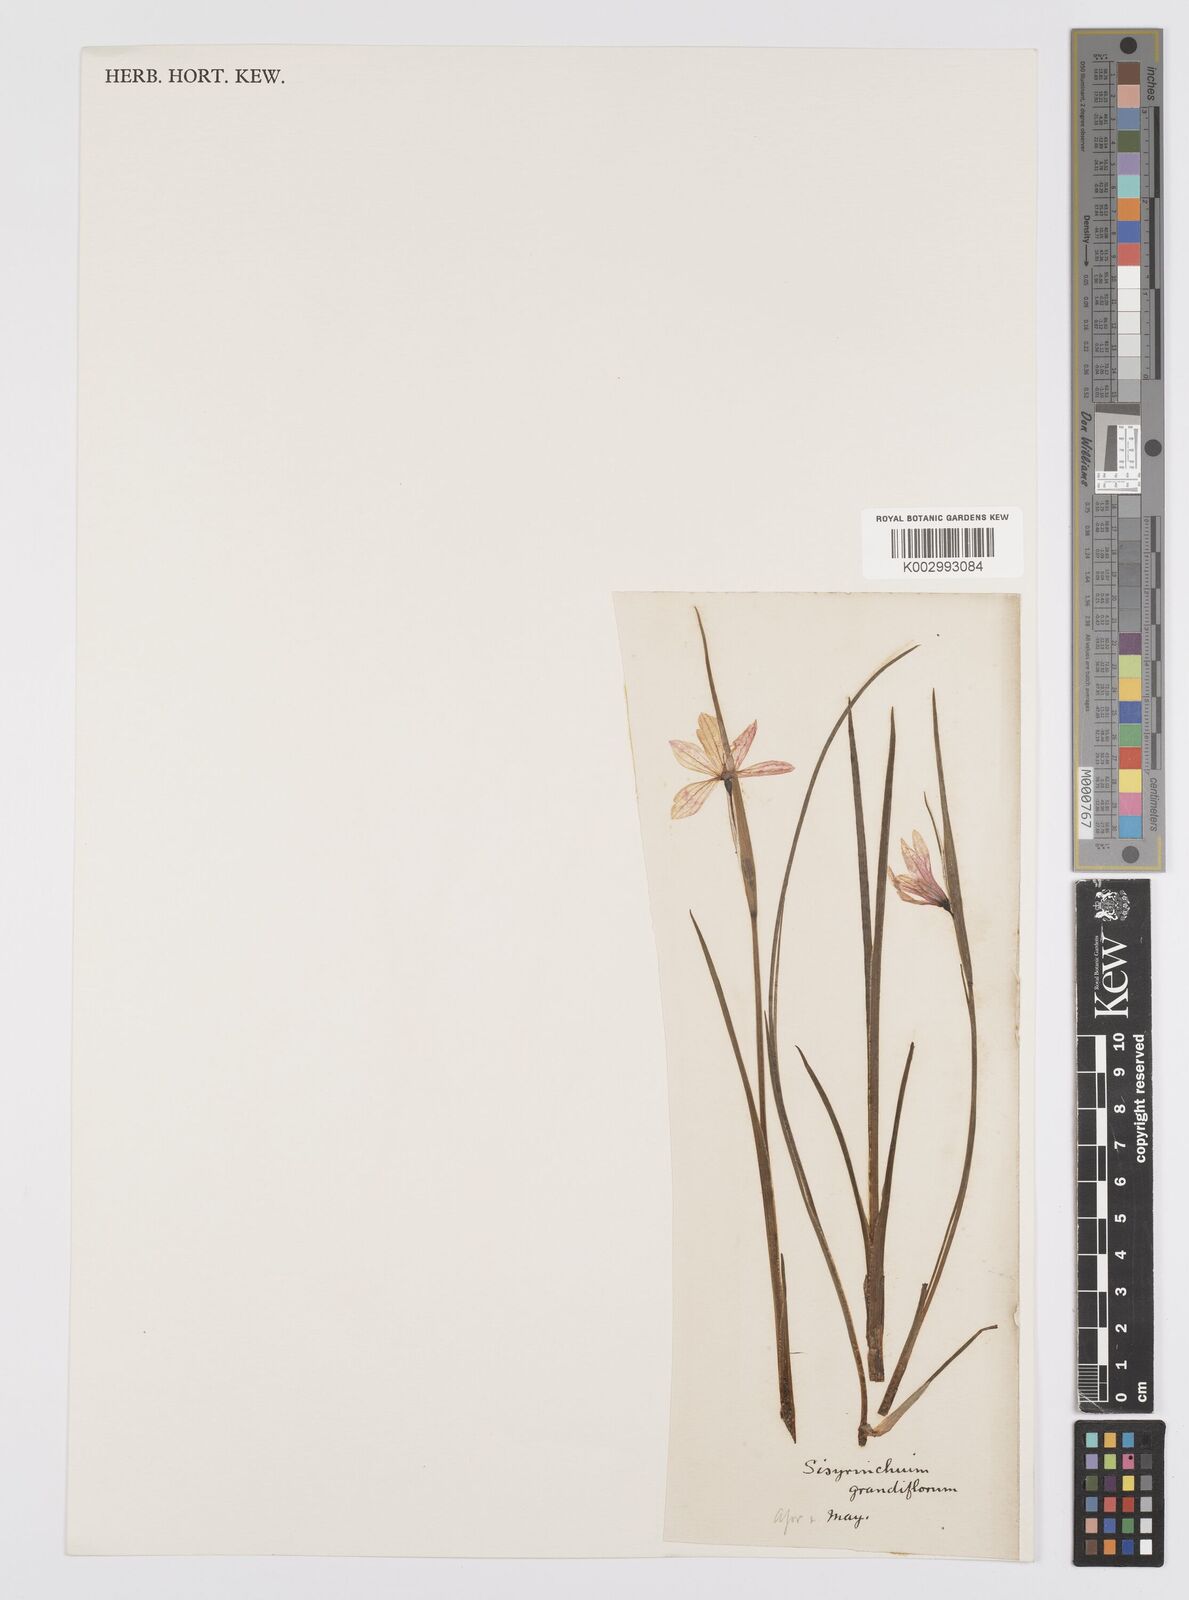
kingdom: Plantae
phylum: Tracheophyta
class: Liliopsida
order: Asparagales
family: Iridaceae
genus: Sisyrinchium
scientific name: Sisyrinchium graminifolium
